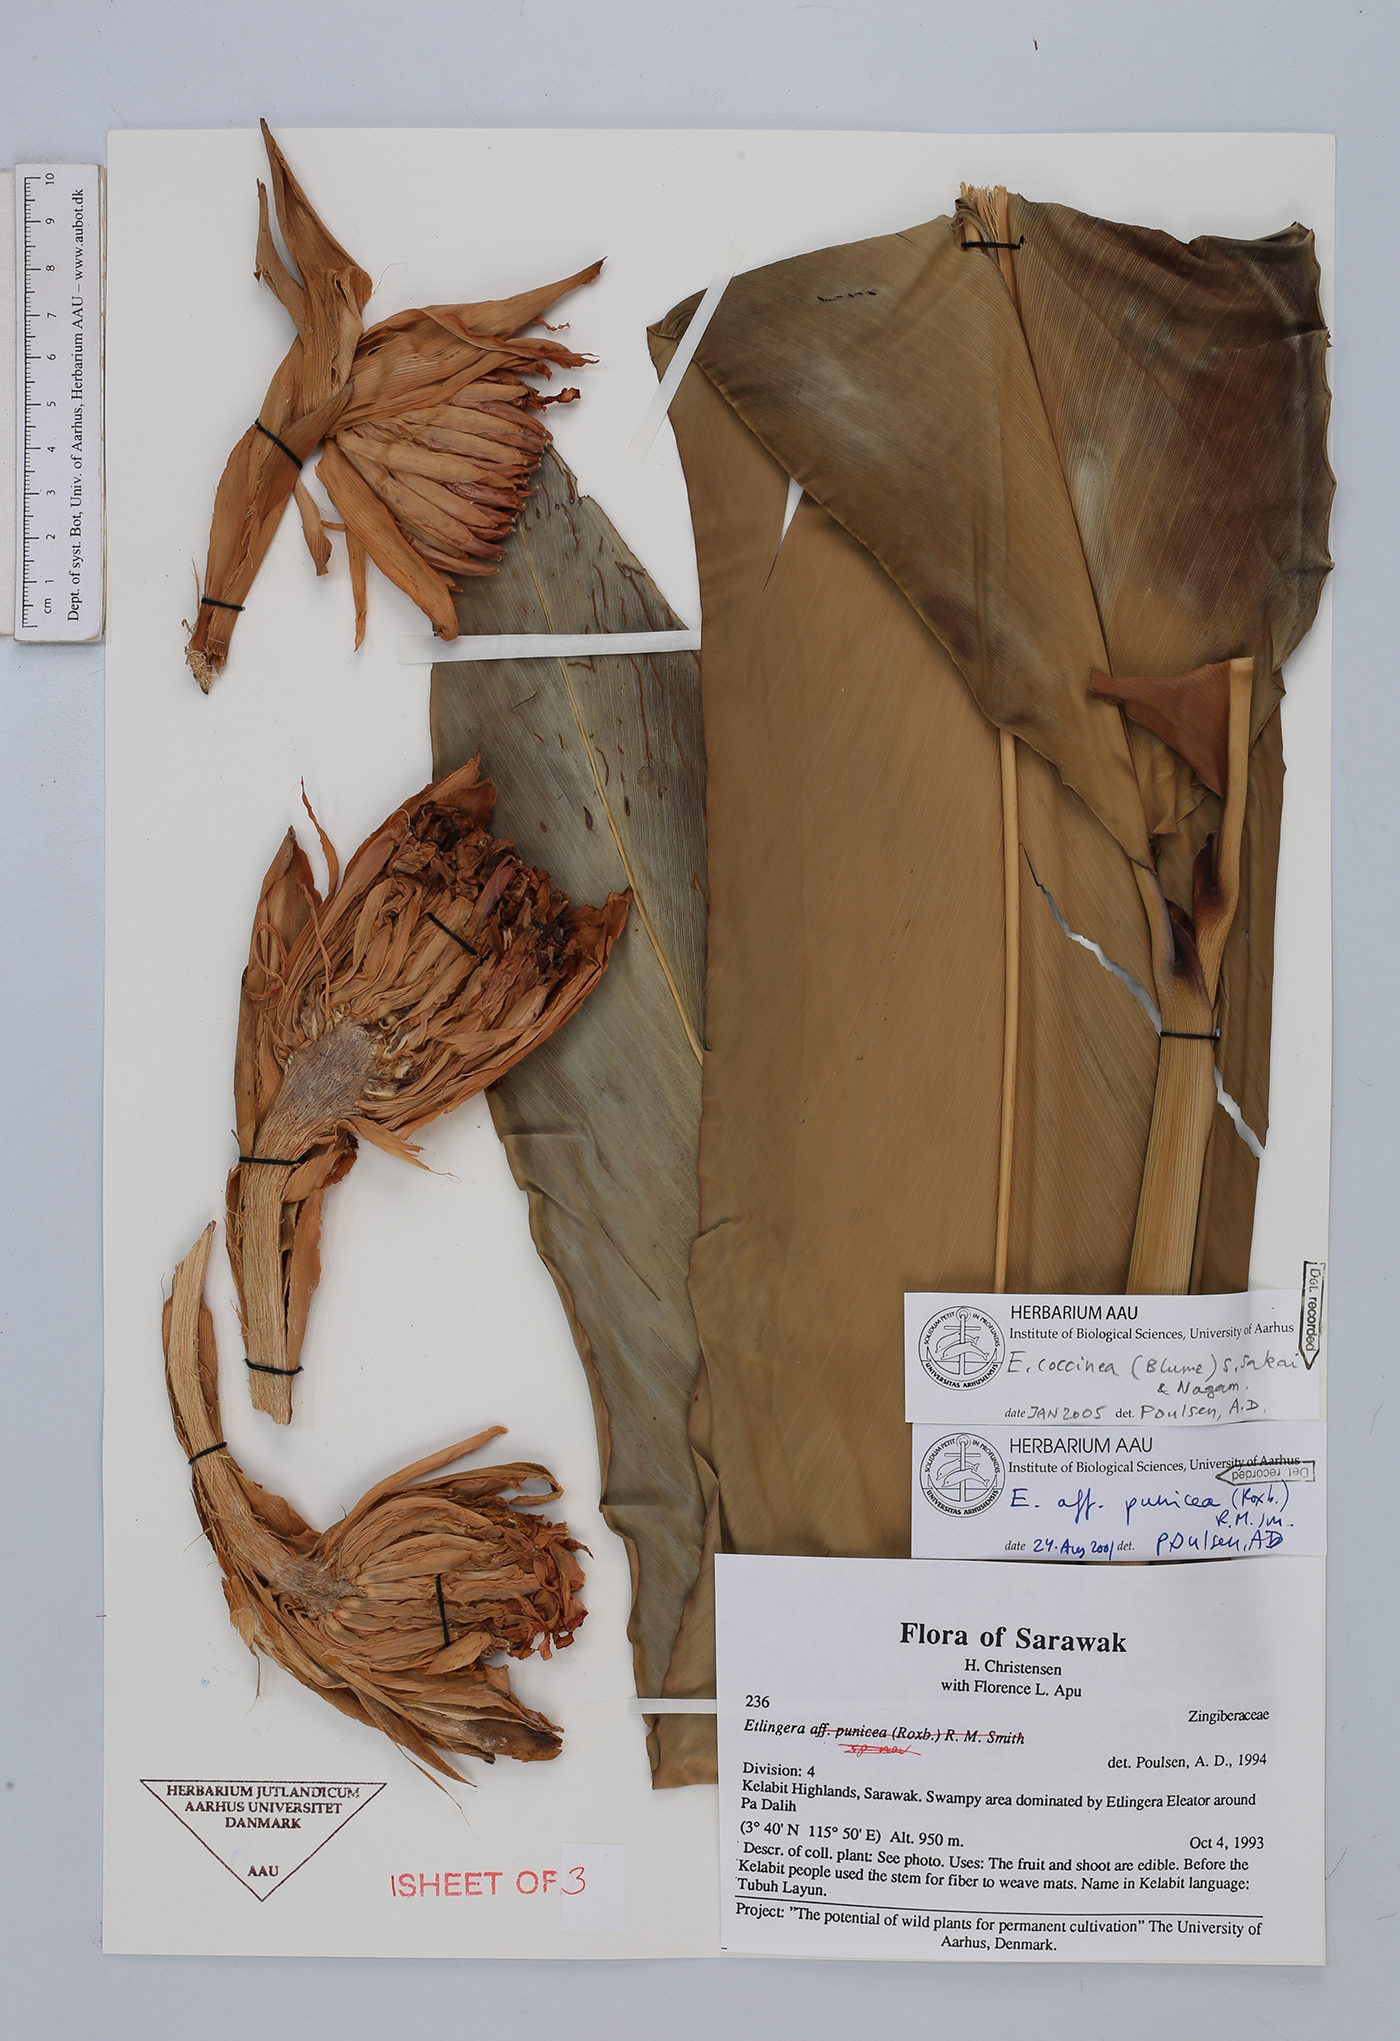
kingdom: Plantae
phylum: Tracheophyta
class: Liliopsida
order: Zingiberales
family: Zingiberaceae
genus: Etlingera
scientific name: Etlingera coccinea
